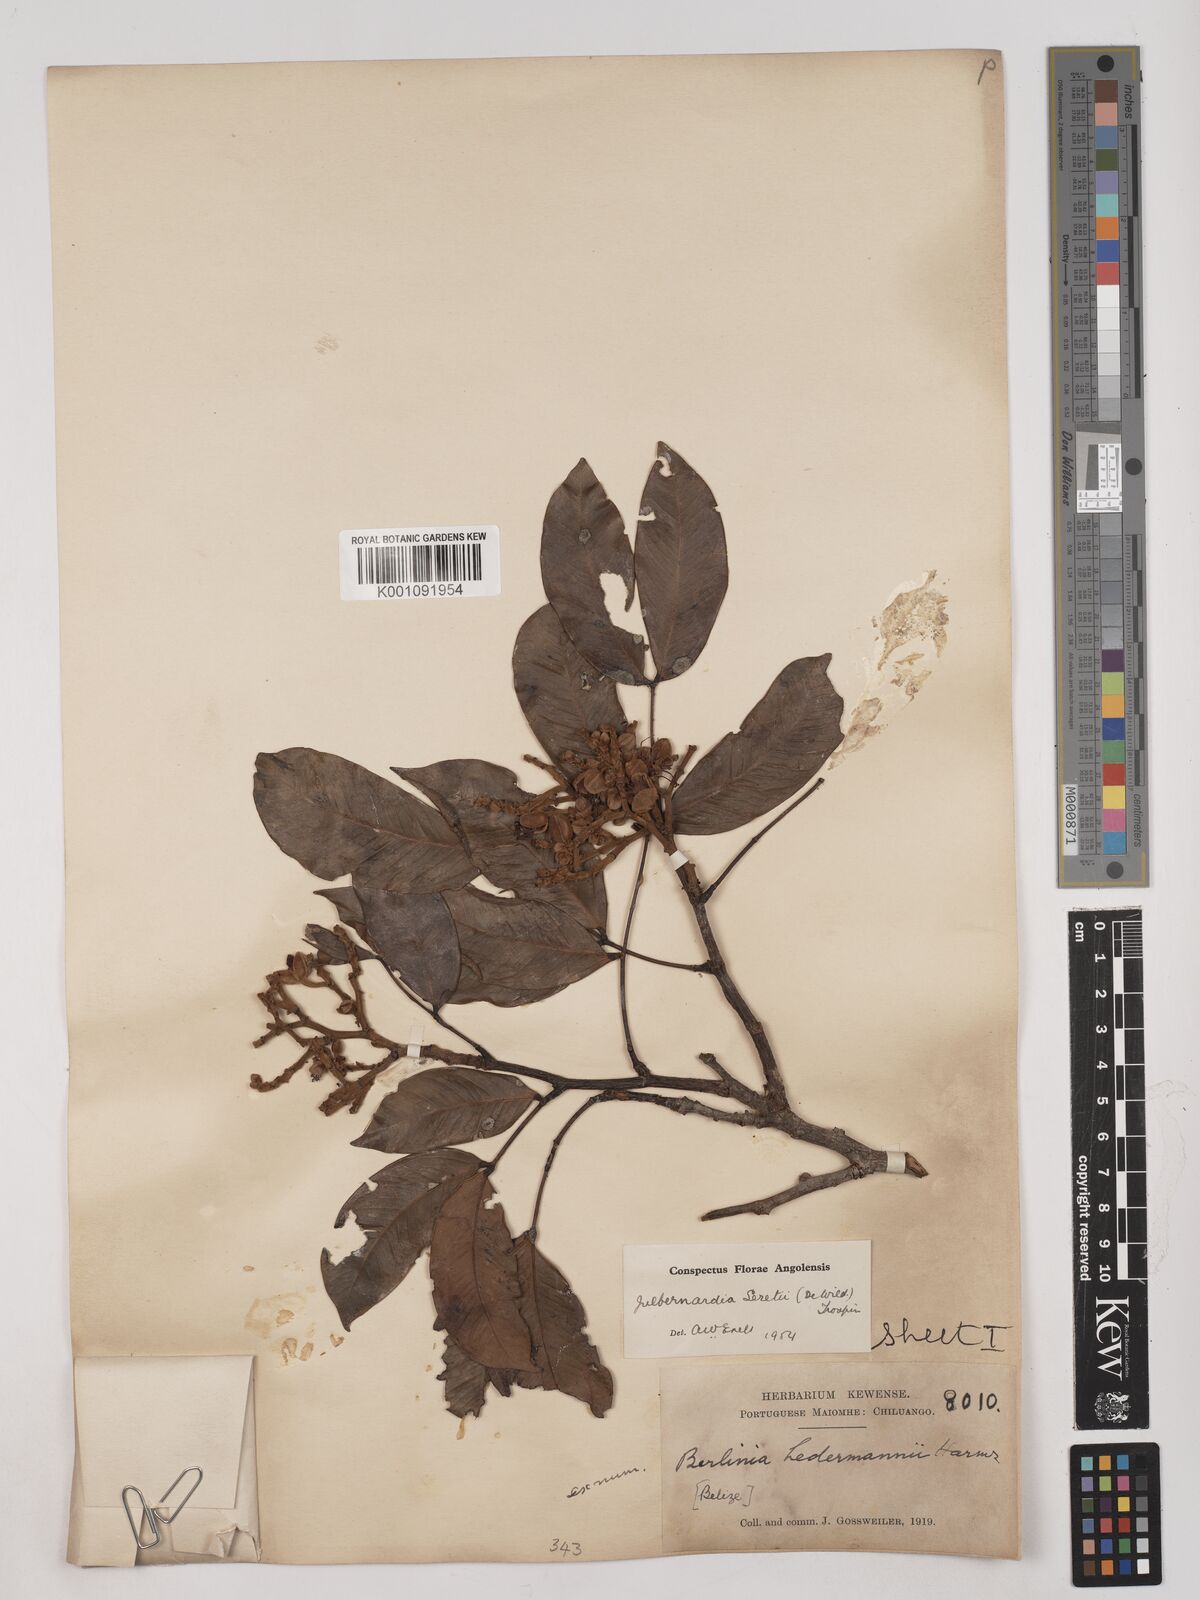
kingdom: Plantae
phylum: Tracheophyta
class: Magnoliopsida
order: Fabales
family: Fabaceae
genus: Julbernardia
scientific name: Julbernardia seretii
